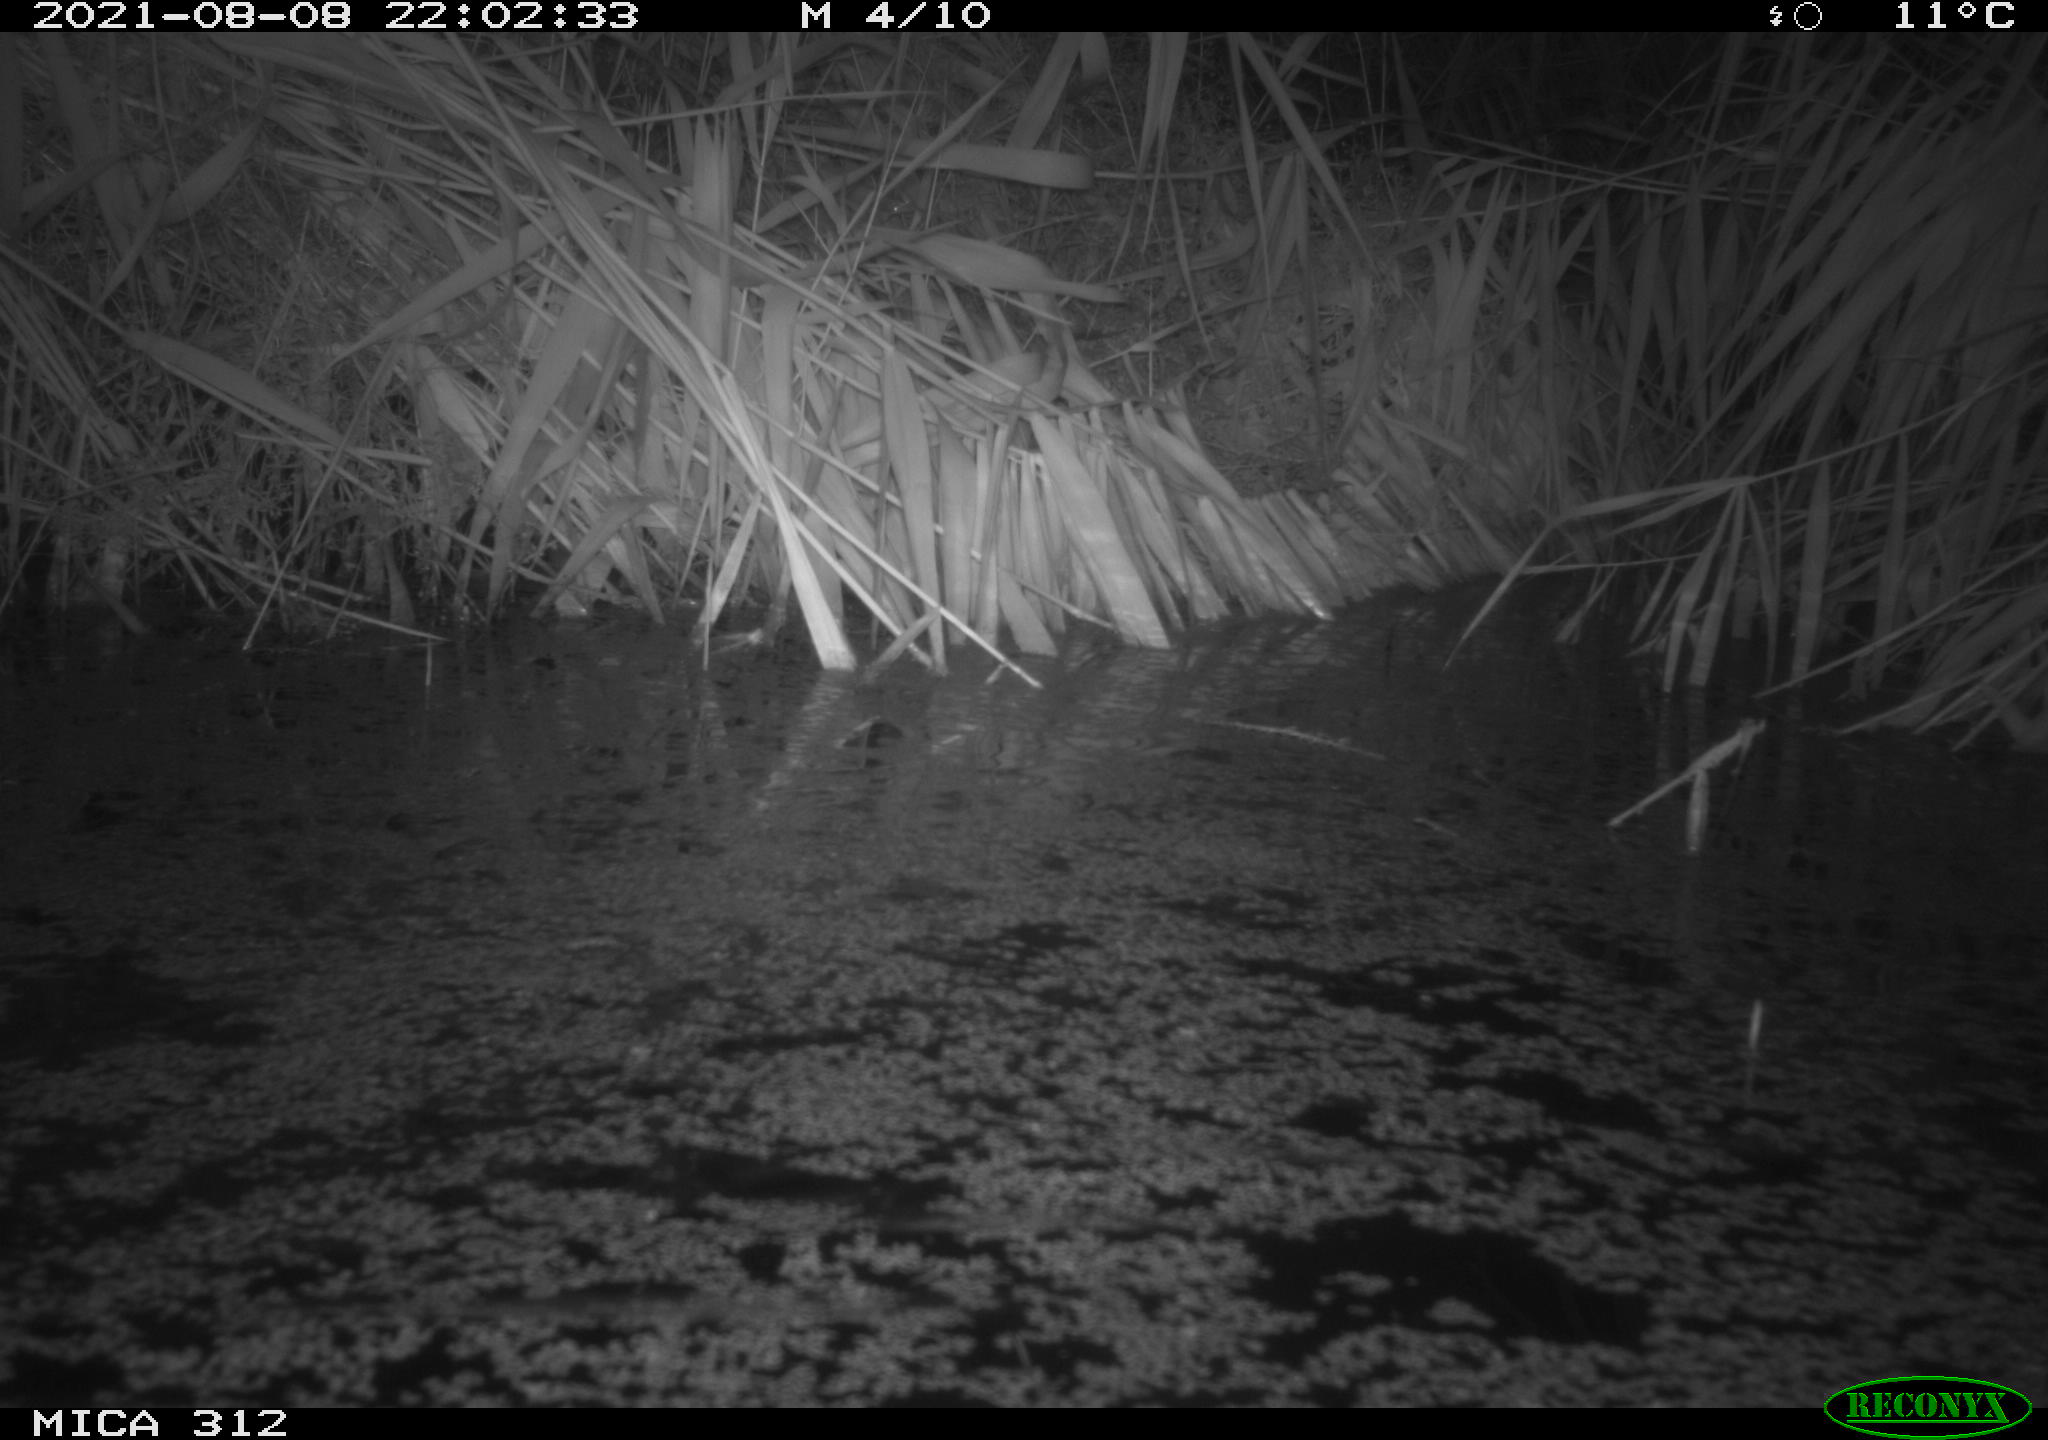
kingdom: Animalia
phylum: Chordata
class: Mammalia
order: Rodentia
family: Cricetidae
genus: Ondatra
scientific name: Ondatra zibethicus
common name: Muskrat
